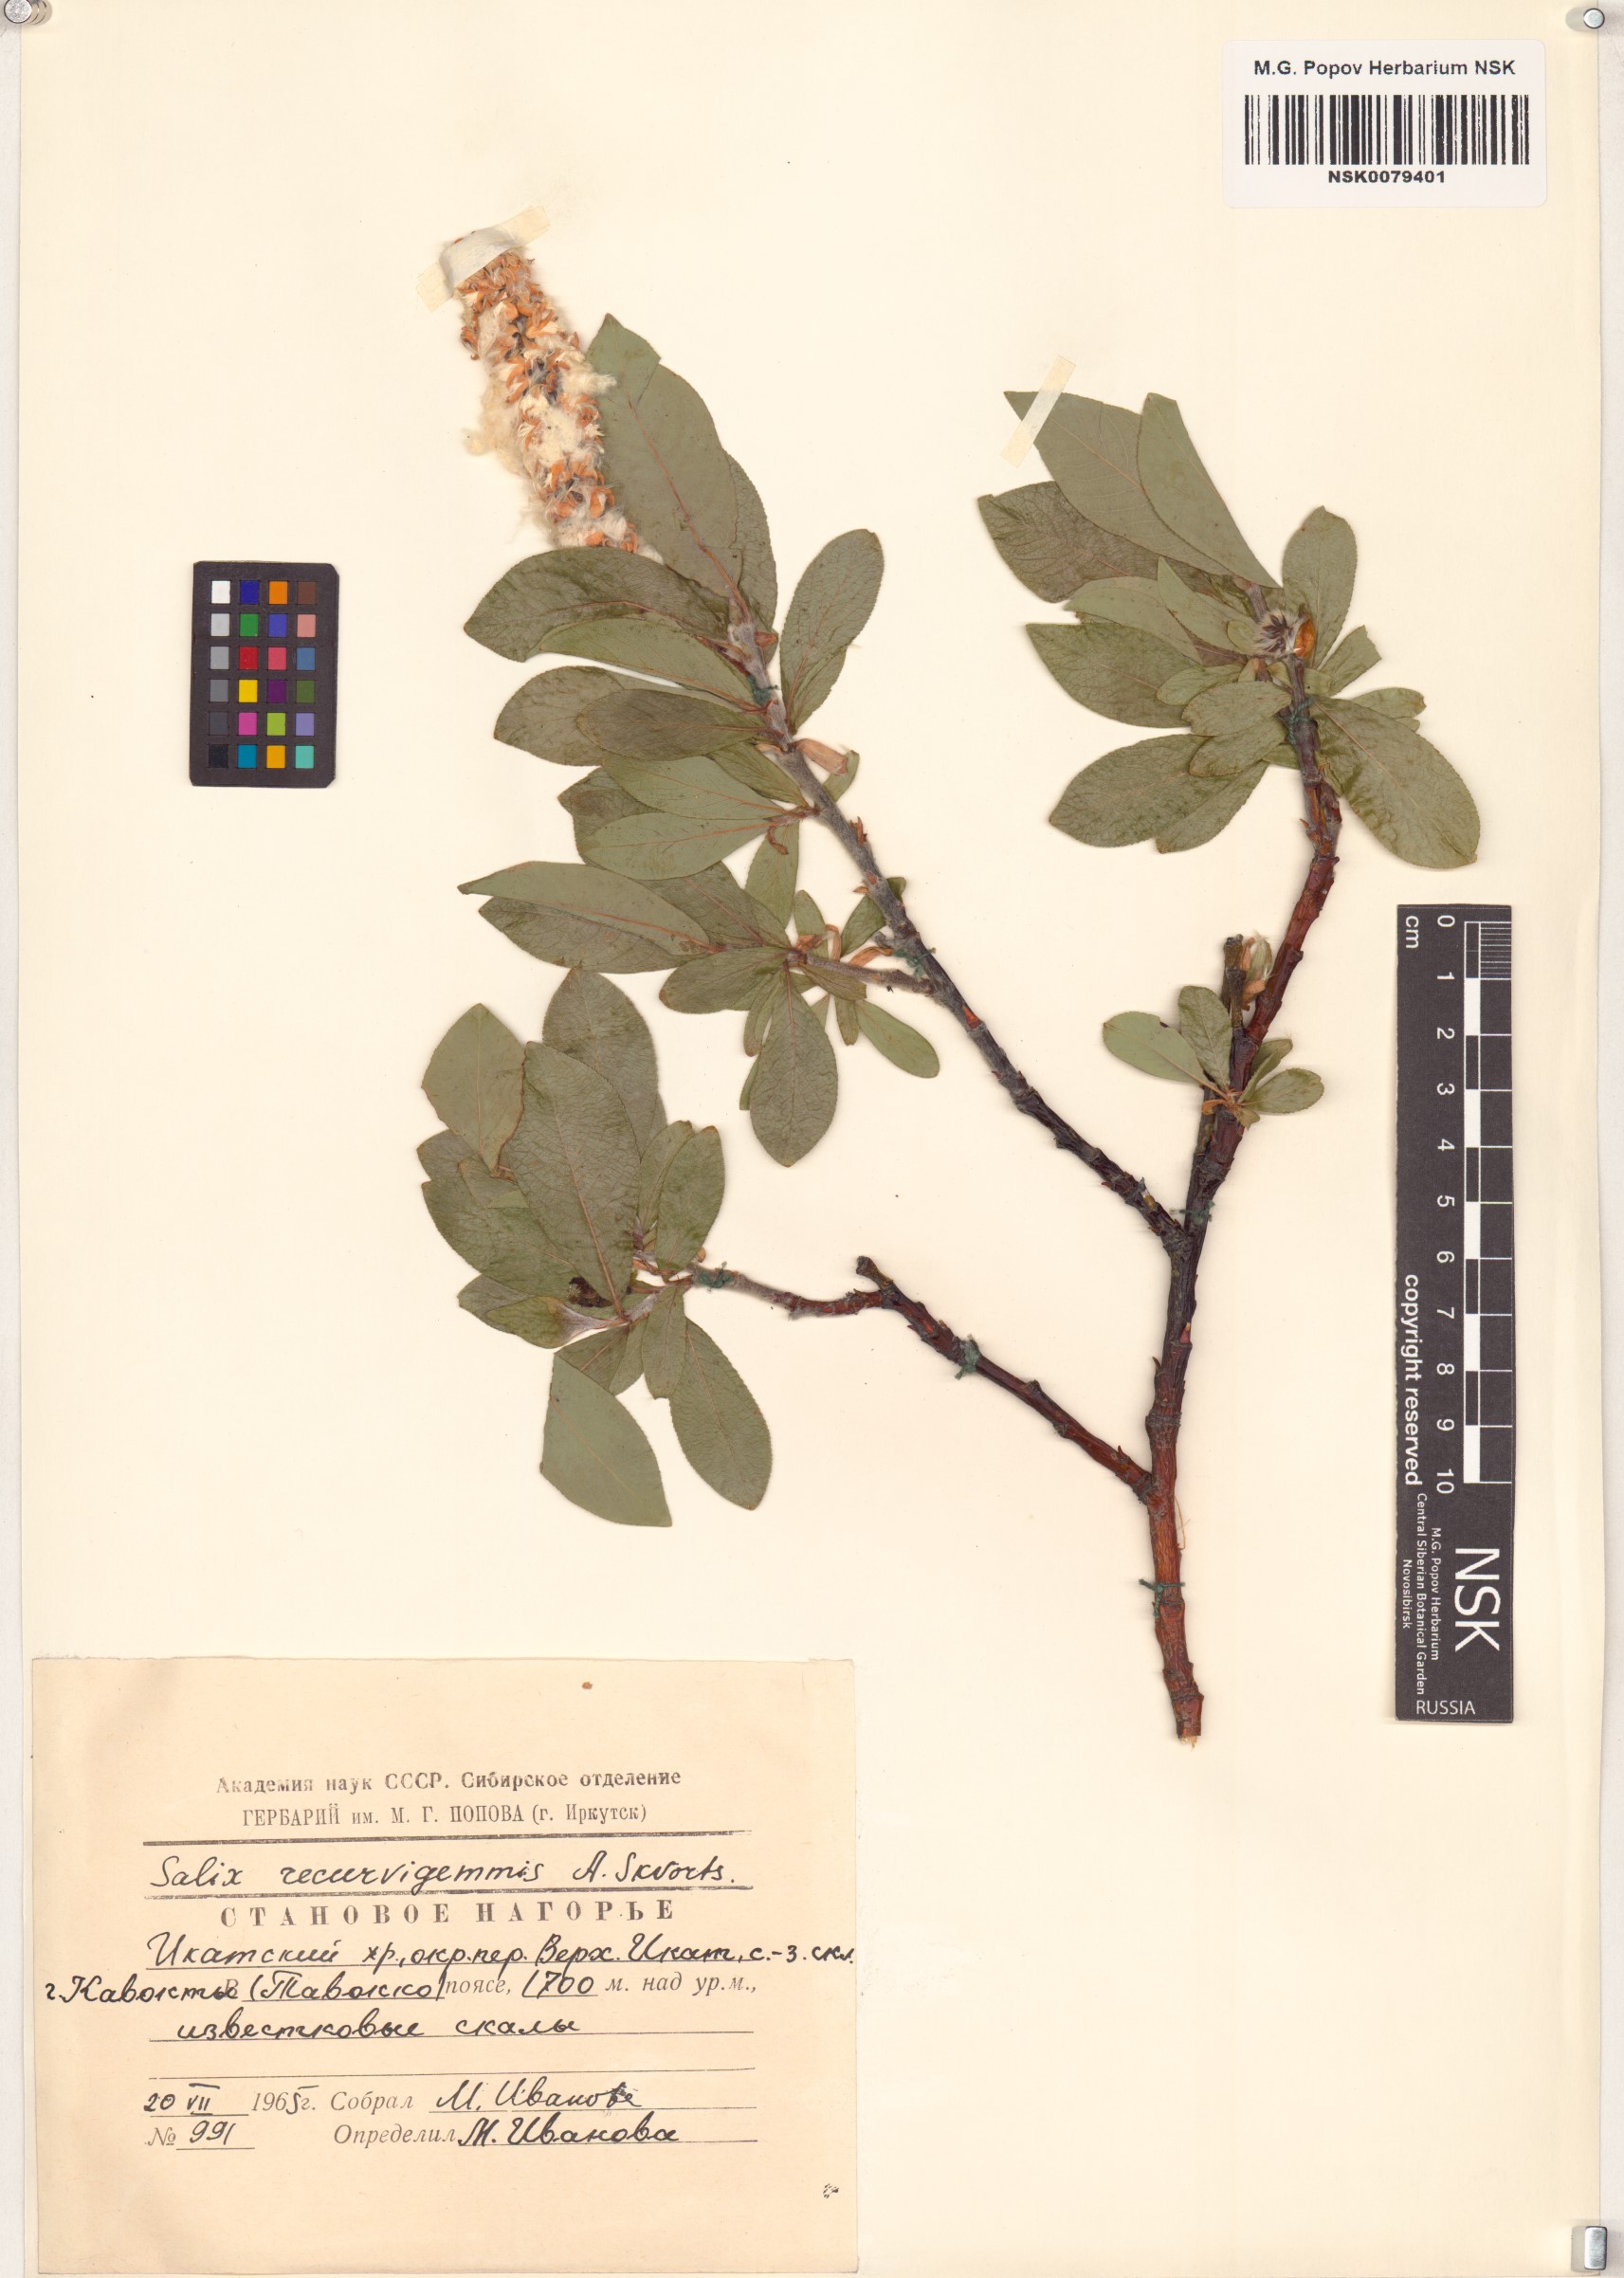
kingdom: Plantae
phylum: Tracheophyta
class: Magnoliopsida
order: Malpighiales
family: Salicaceae
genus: Salix
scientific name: Salix recurvigemmata
